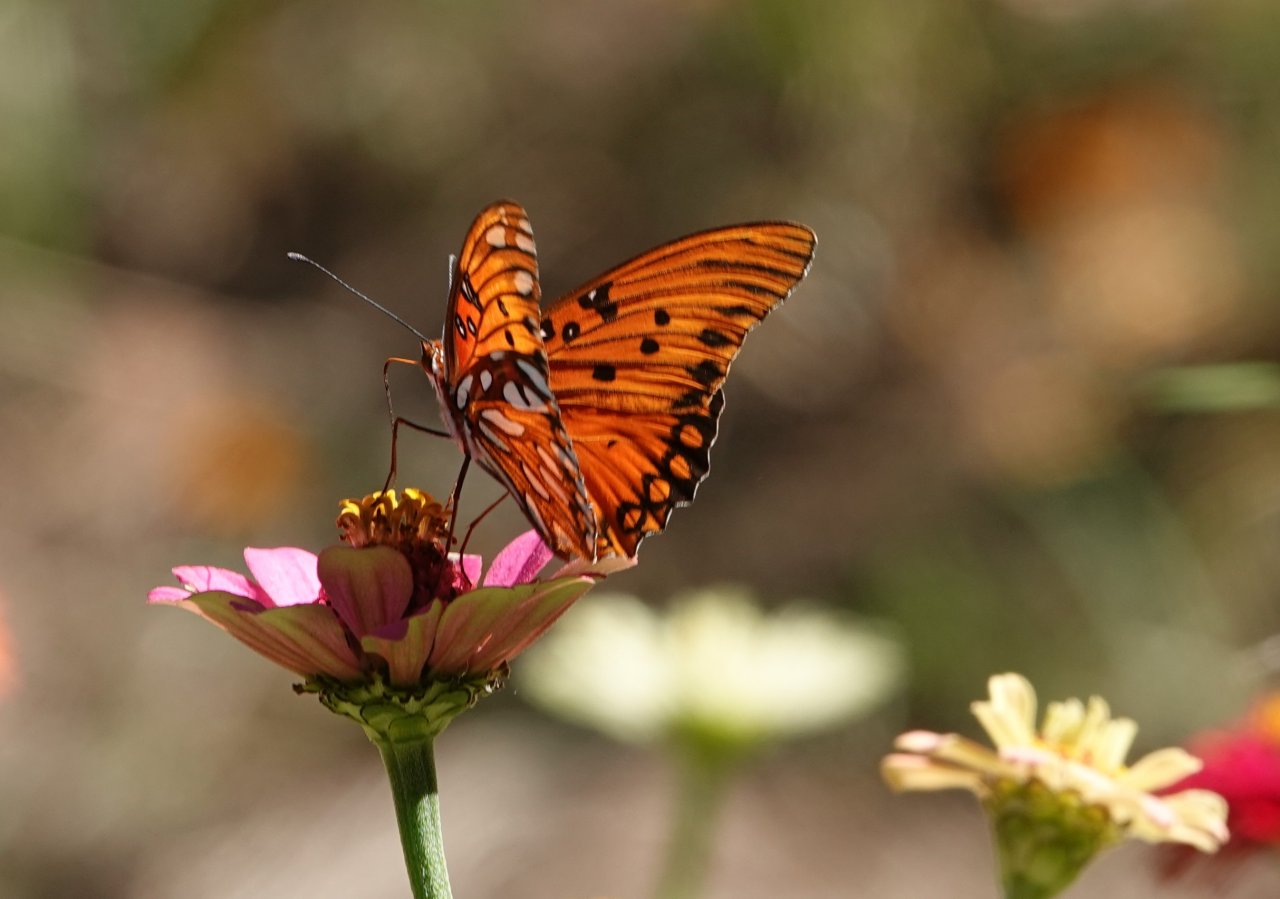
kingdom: Animalia
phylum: Arthropoda
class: Insecta
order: Lepidoptera
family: Nymphalidae
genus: Dione
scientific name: Dione vanillae
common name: Gulf Fritillary
